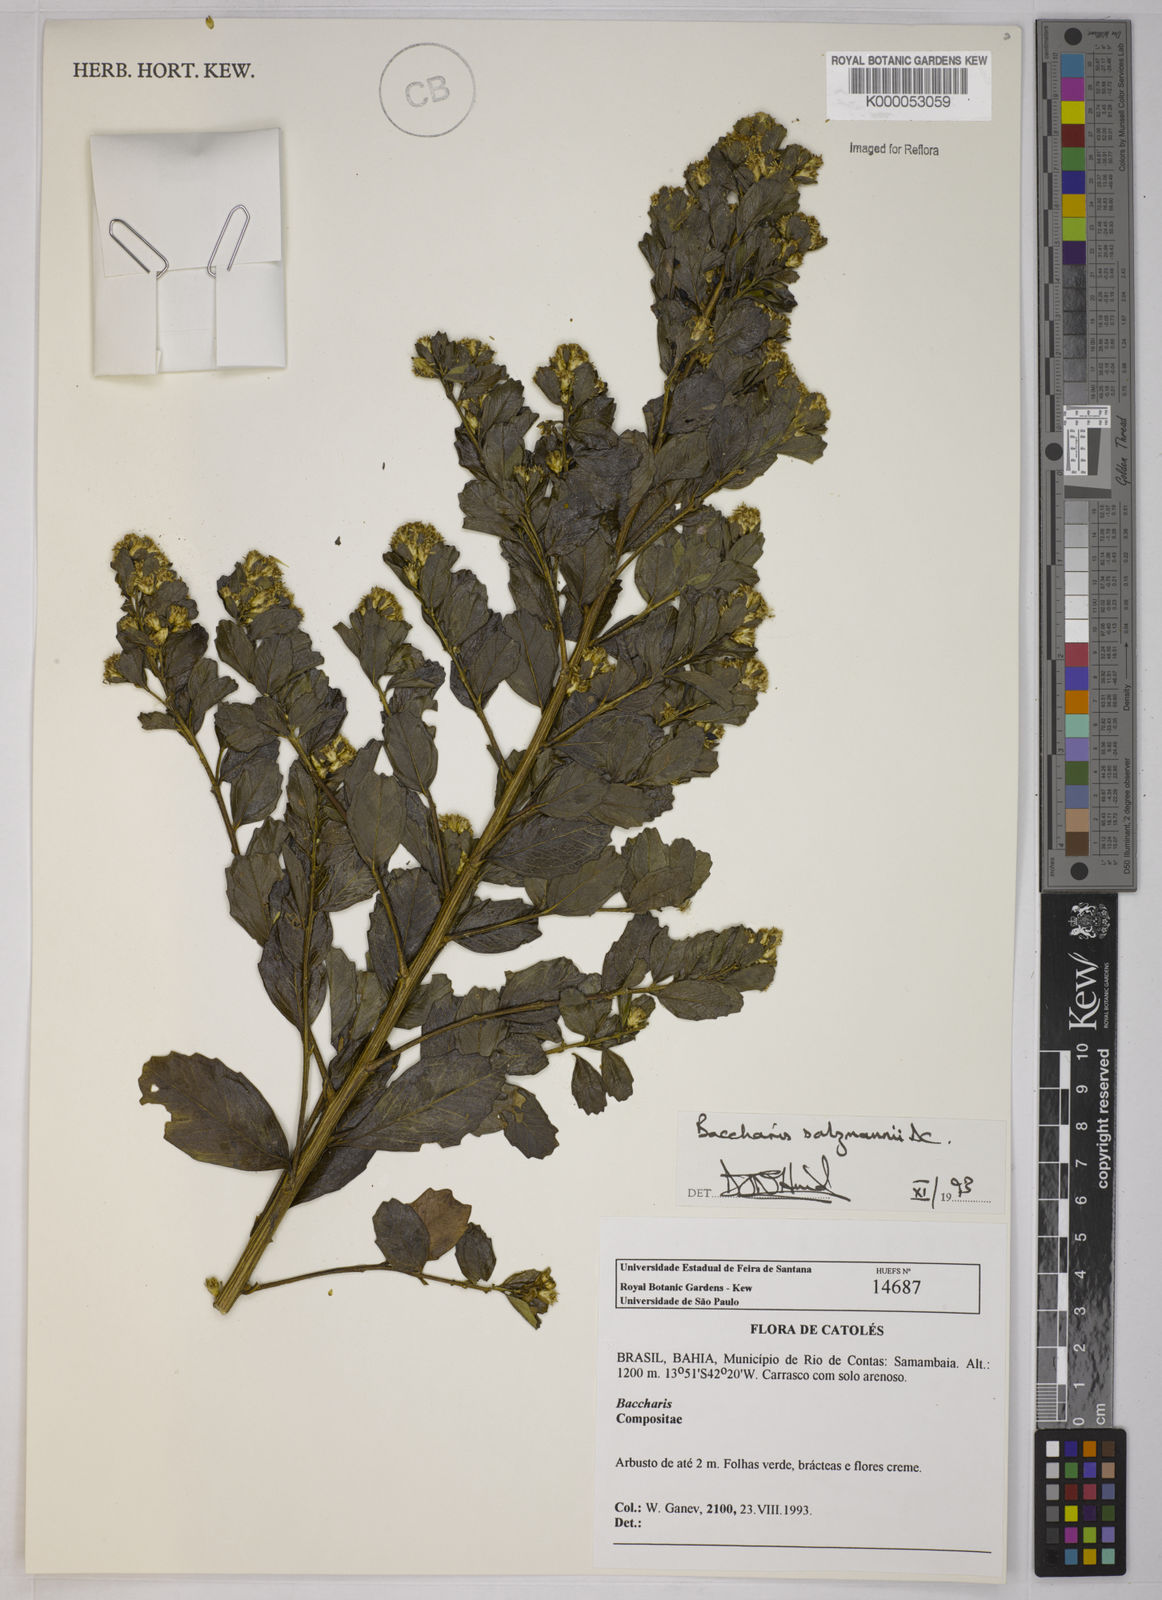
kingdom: Plantae
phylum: Tracheophyta
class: Magnoliopsida
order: Asterales
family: Asteraceae
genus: Baccharis
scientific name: Baccharis retusa
